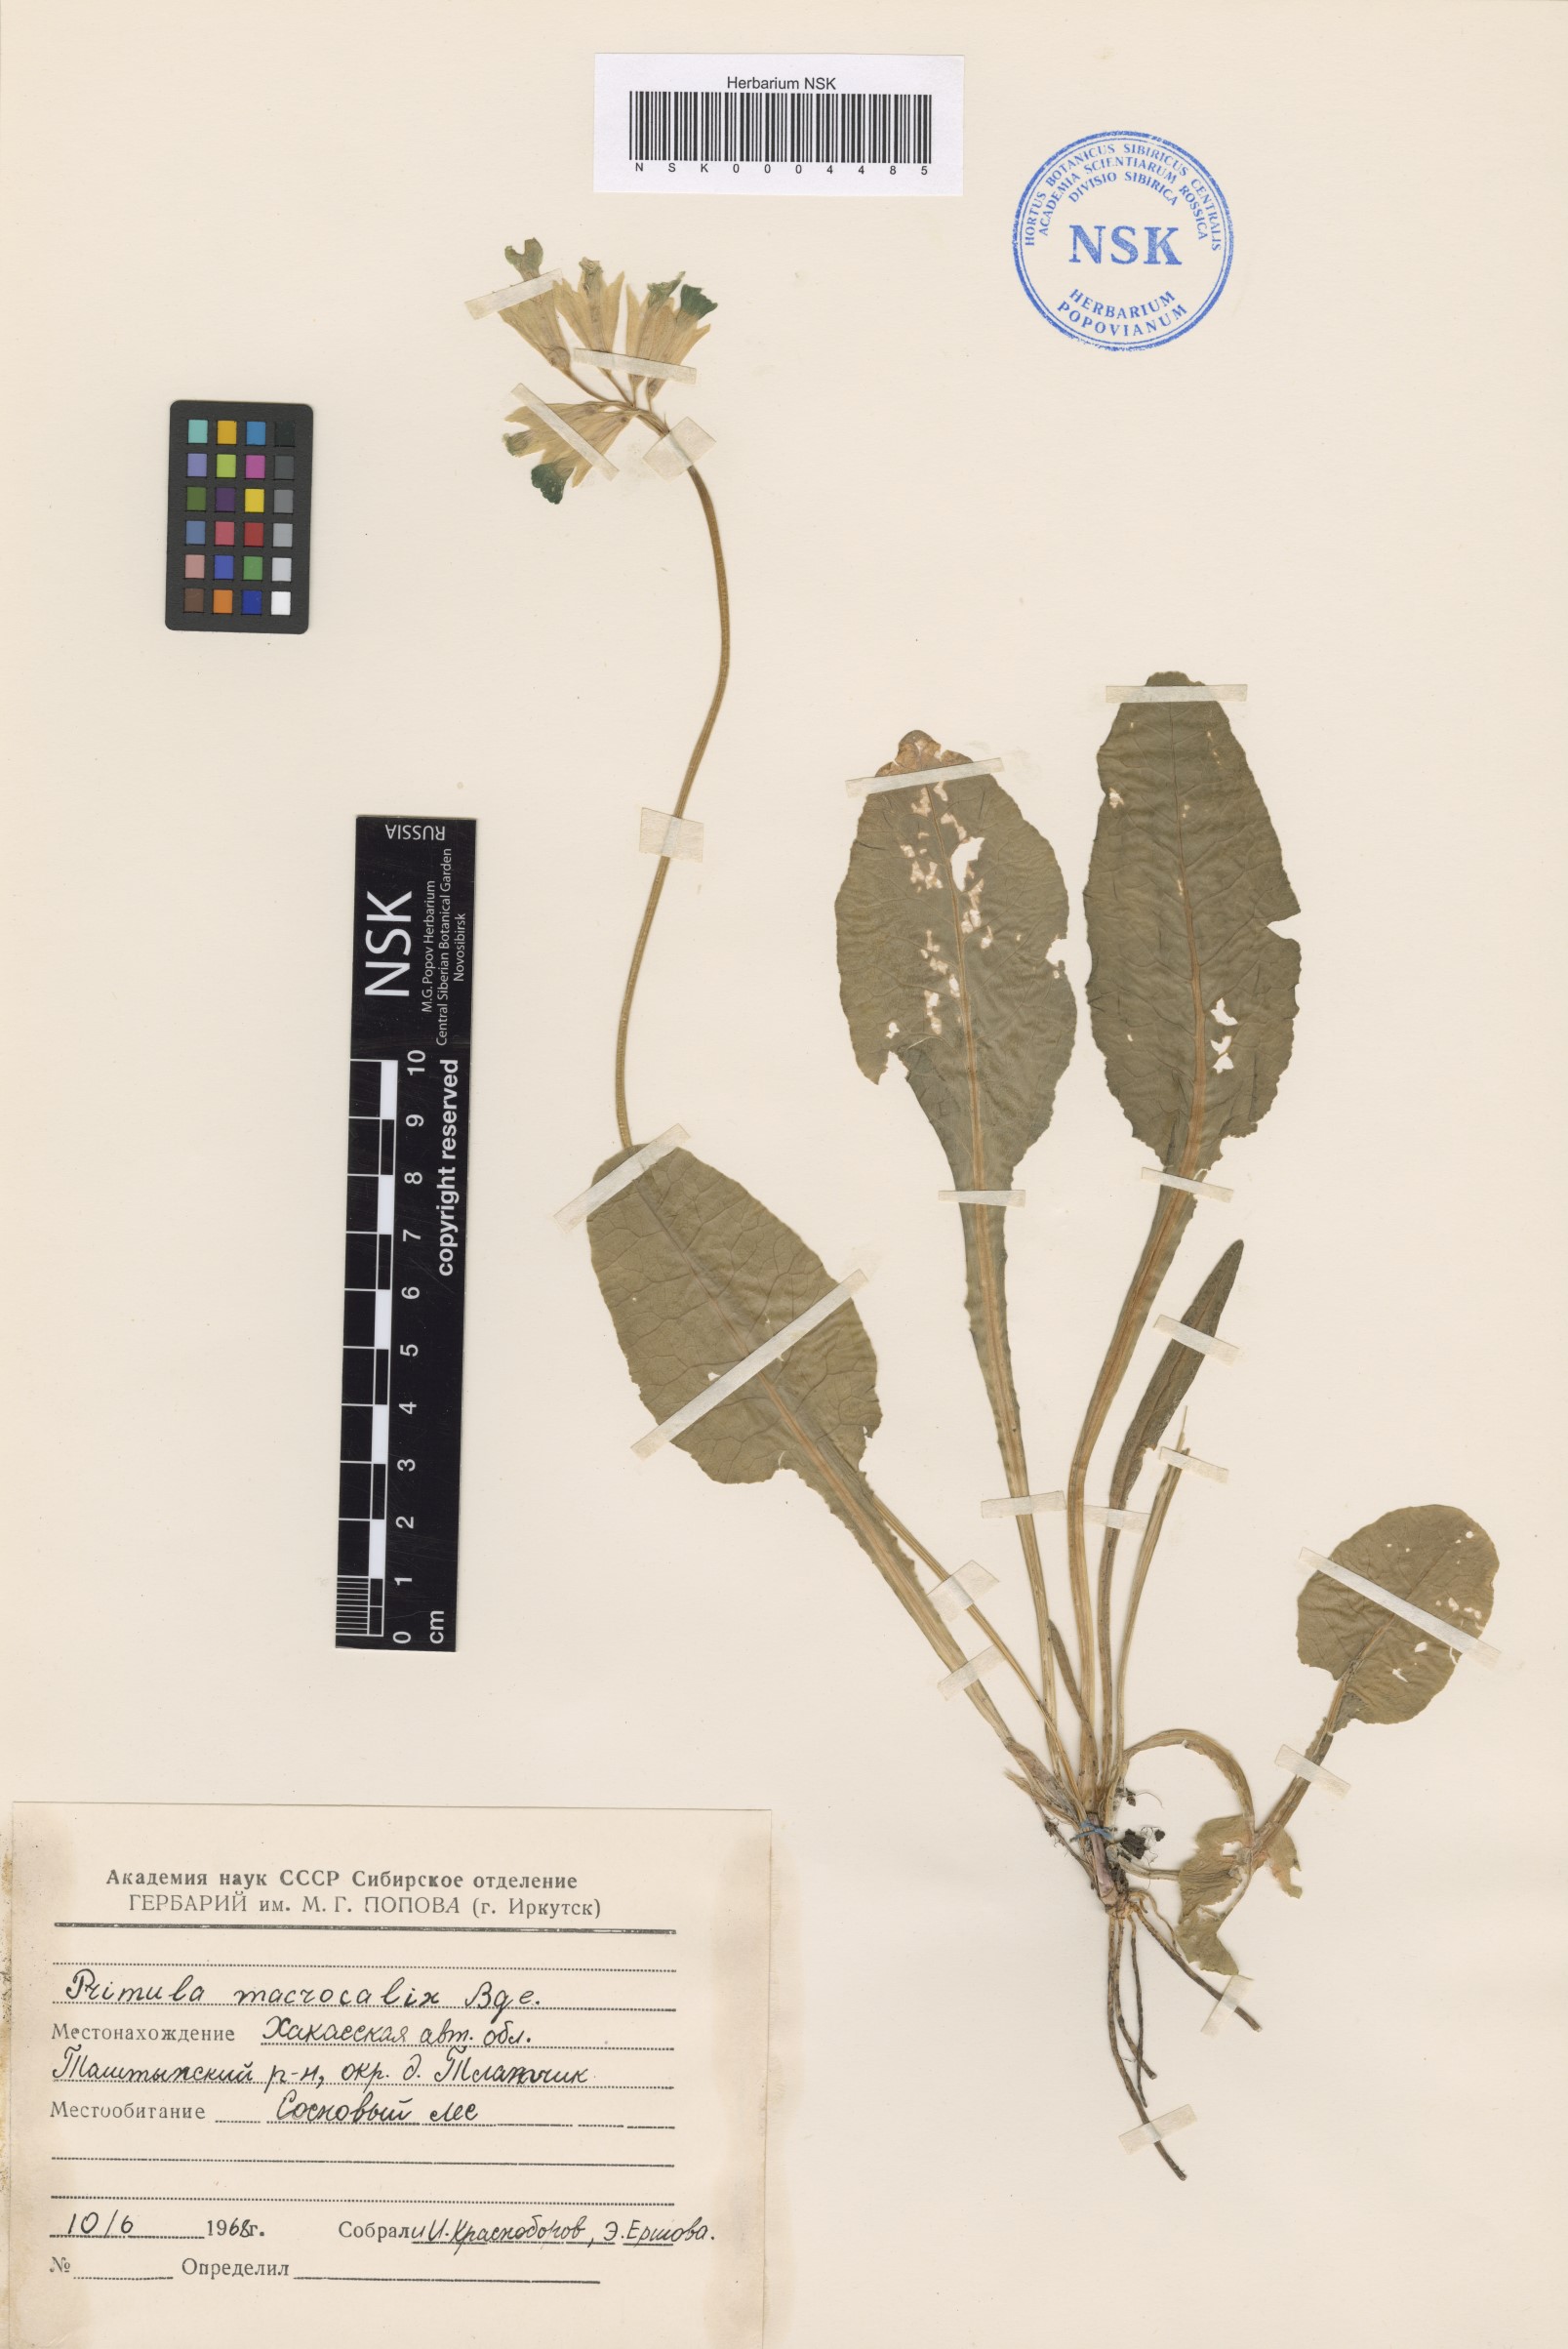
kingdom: Plantae
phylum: Tracheophyta
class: Magnoliopsida
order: Ericales
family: Primulaceae
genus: Primula
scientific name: Primula veris
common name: Cowslip
